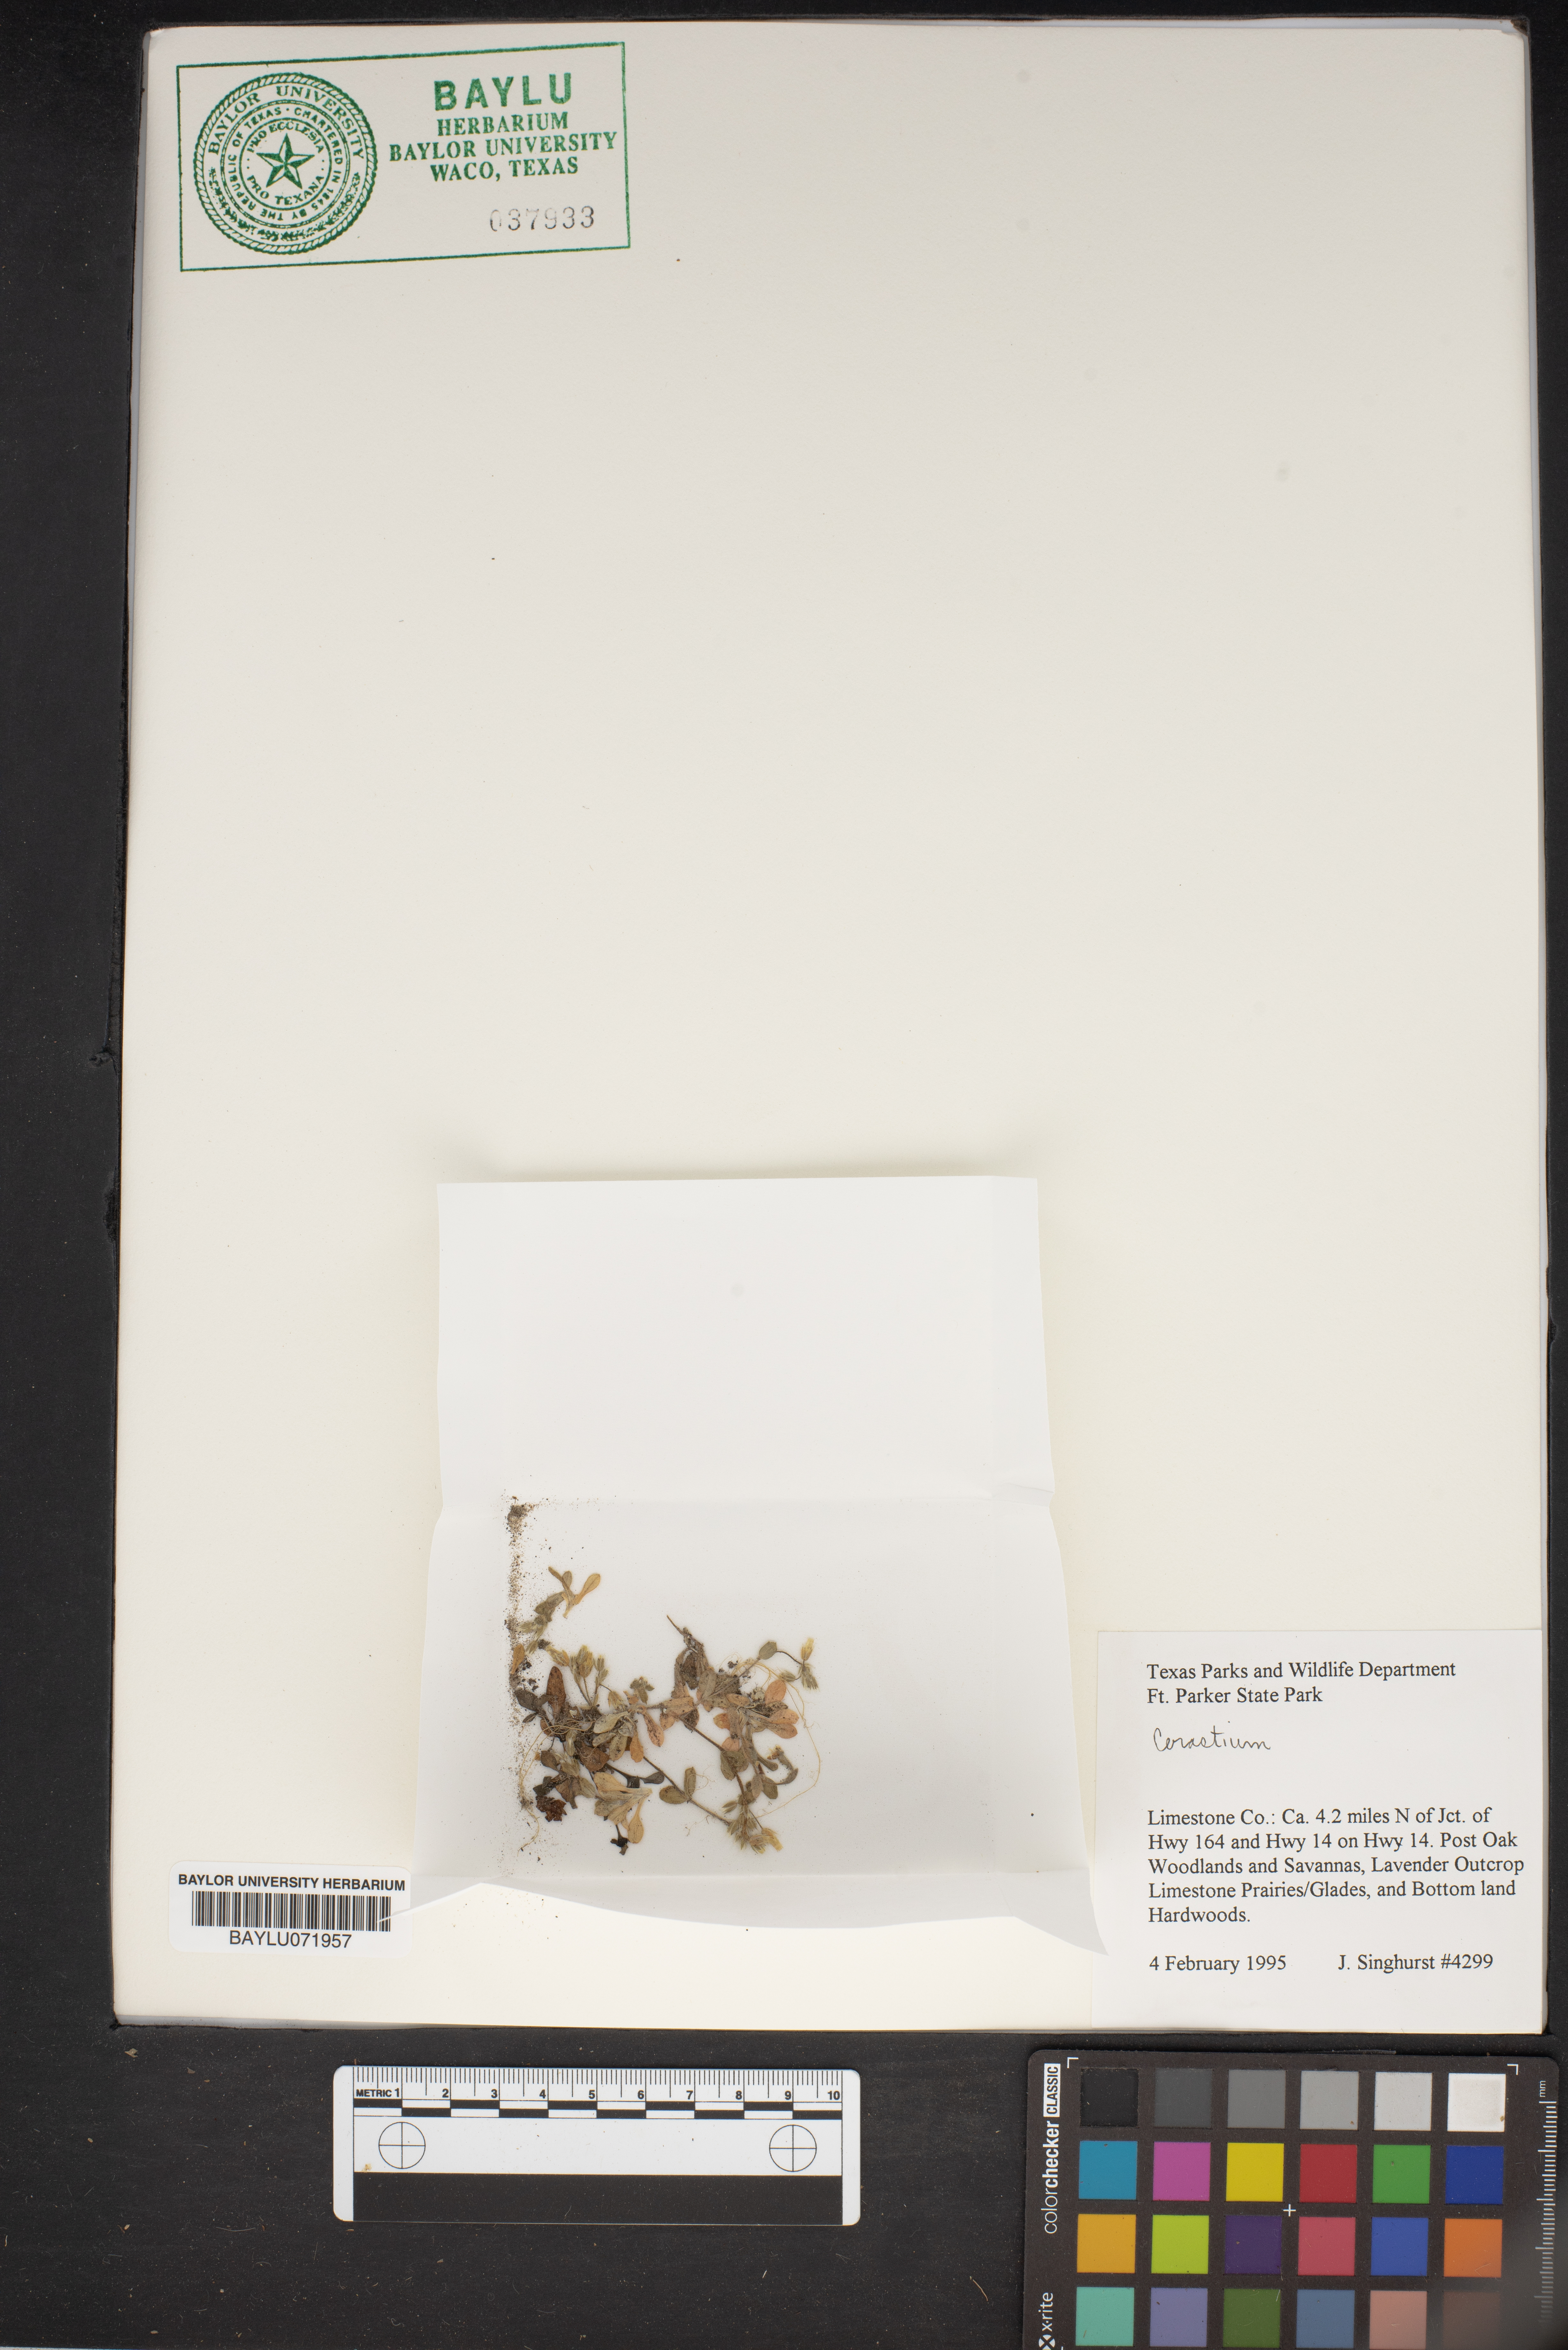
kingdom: Plantae
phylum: Tracheophyta
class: Magnoliopsida
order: Caryophyllales
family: Caryophyllaceae
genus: Cerastium
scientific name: Cerastium
